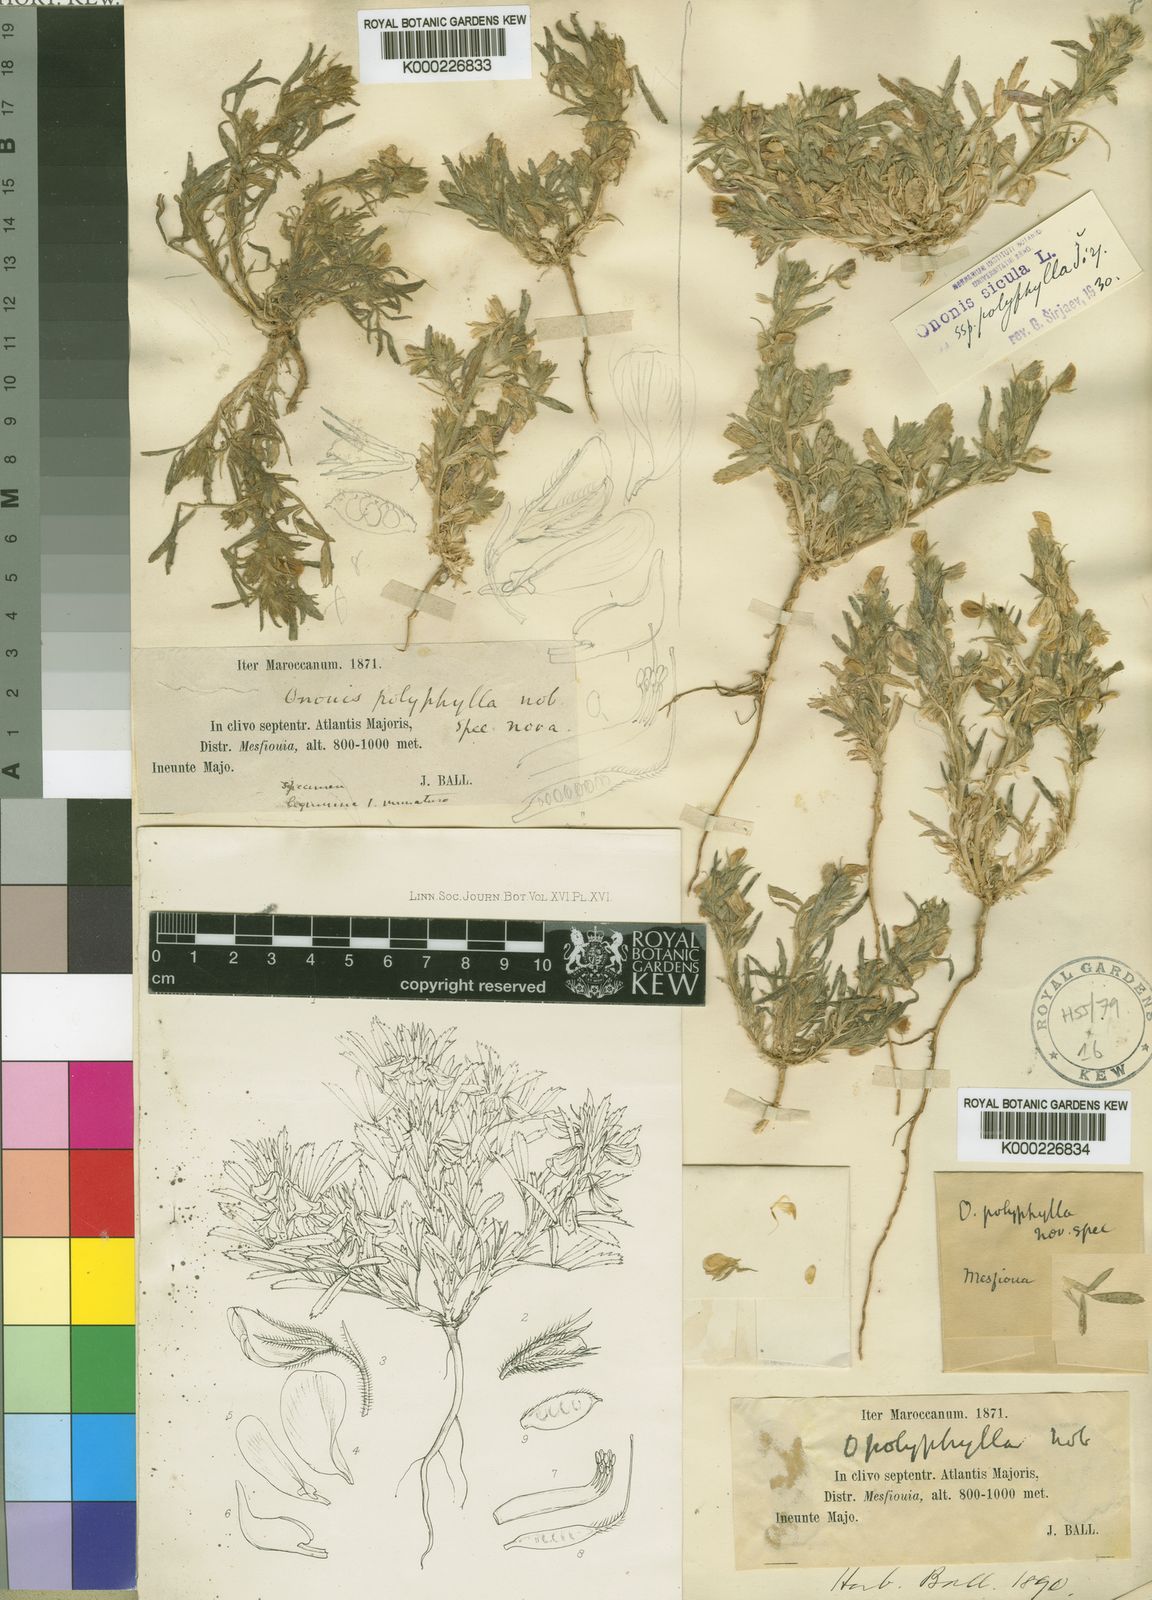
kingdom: Plantae
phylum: Tracheophyta
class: Magnoliopsida
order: Fabales
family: Fabaceae
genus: Ononis
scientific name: Ononis
